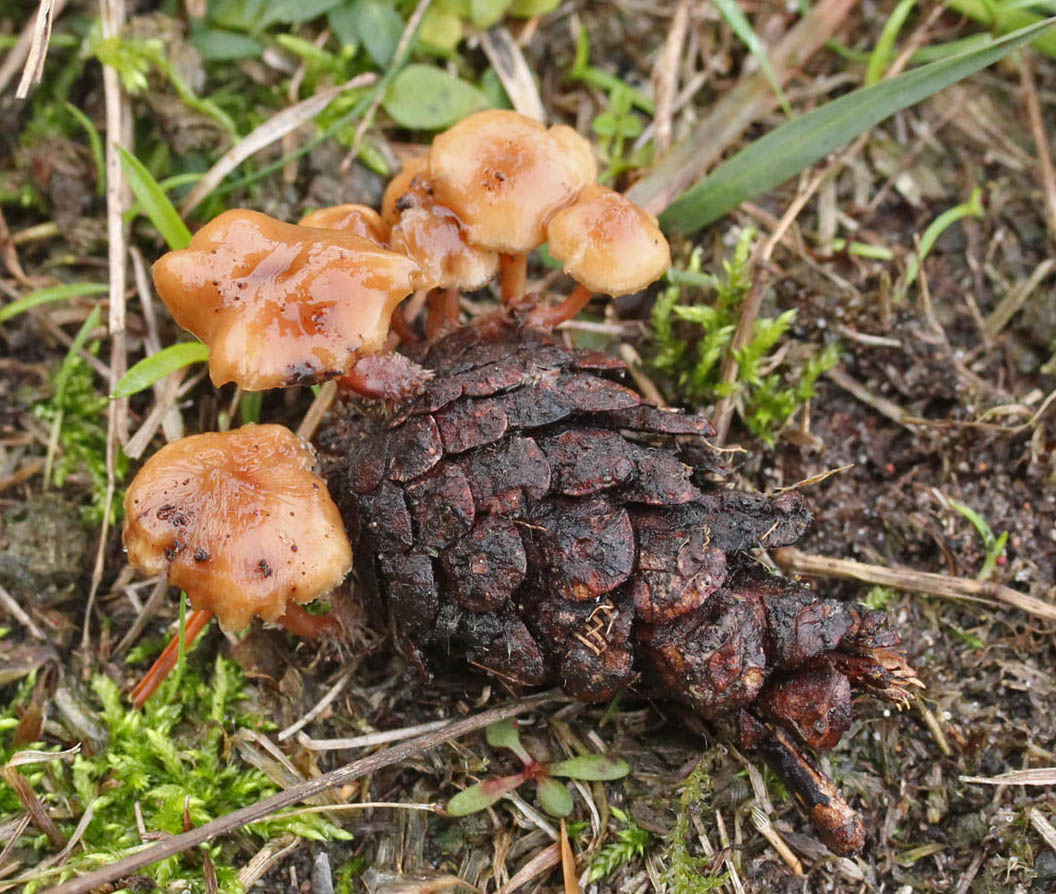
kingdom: Fungi
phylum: Basidiomycota
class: Agaricomycetes
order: Agaricales
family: Marasmiaceae
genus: Baeospora
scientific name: Baeospora myosura
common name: koglebruskhat
